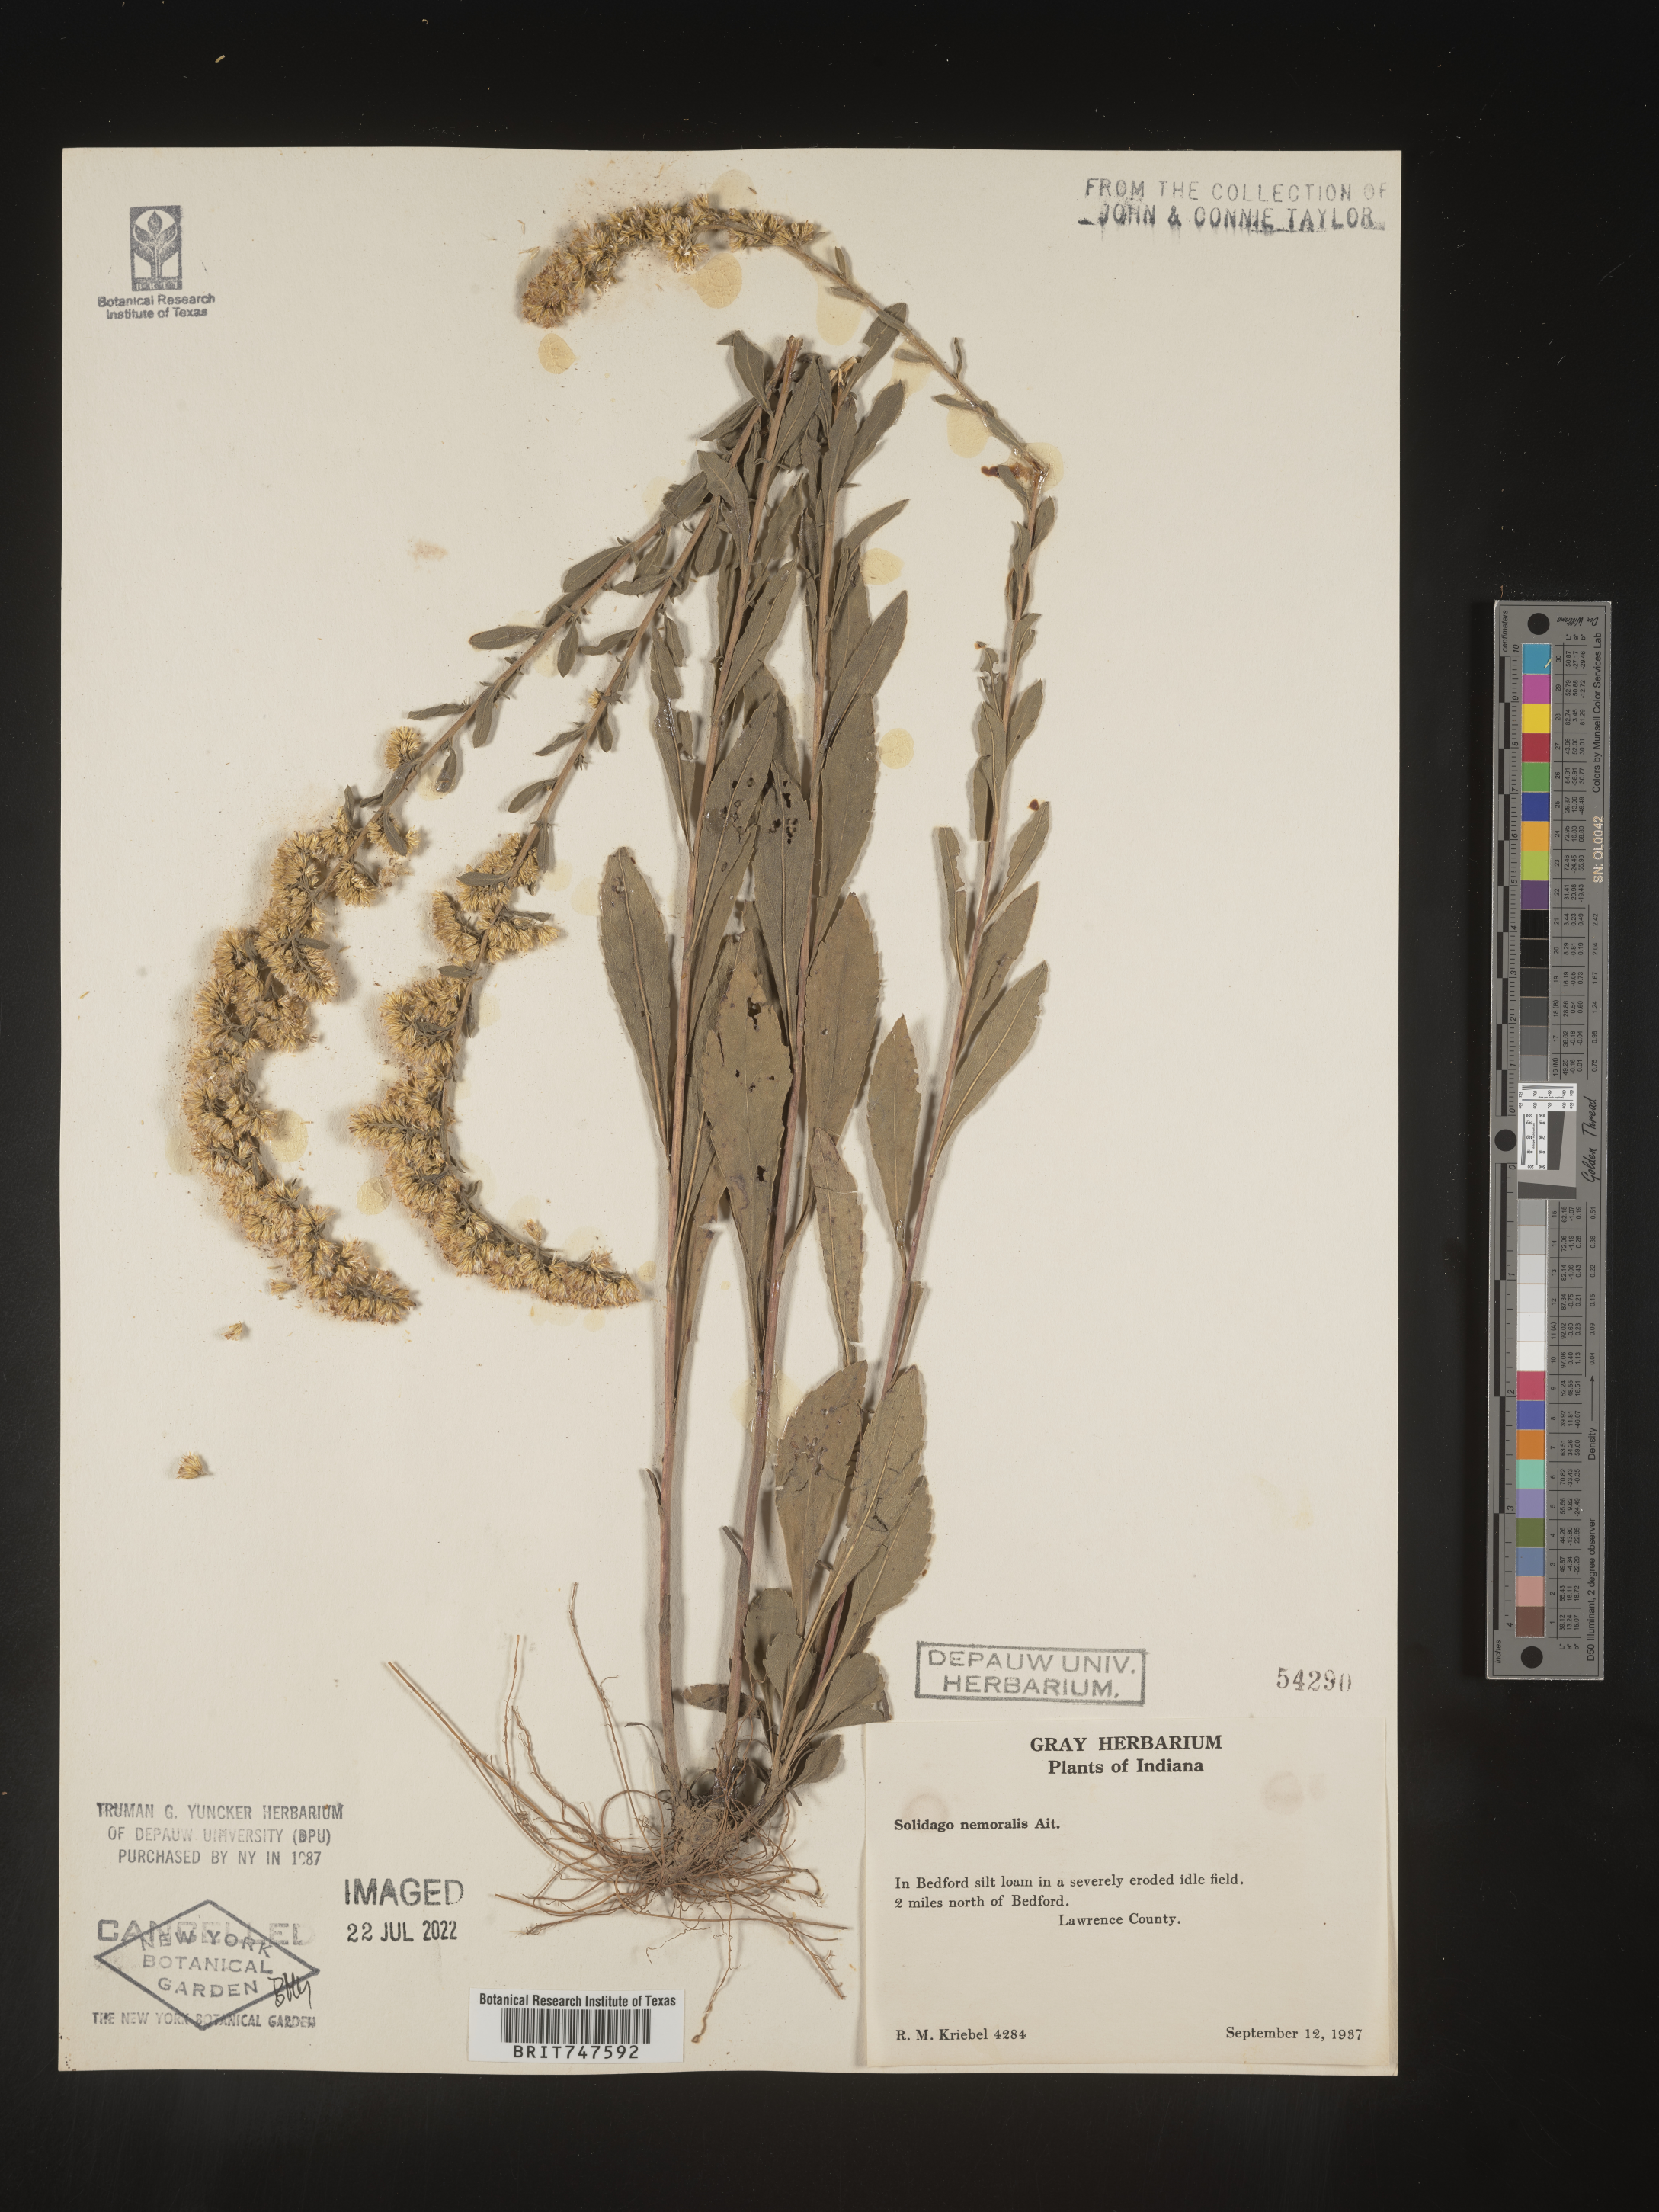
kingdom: Plantae
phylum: Tracheophyta
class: Magnoliopsida
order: Asterales
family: Asteraceae
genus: Solidago
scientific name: Solidago nemoralis
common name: Grey goldenrod
